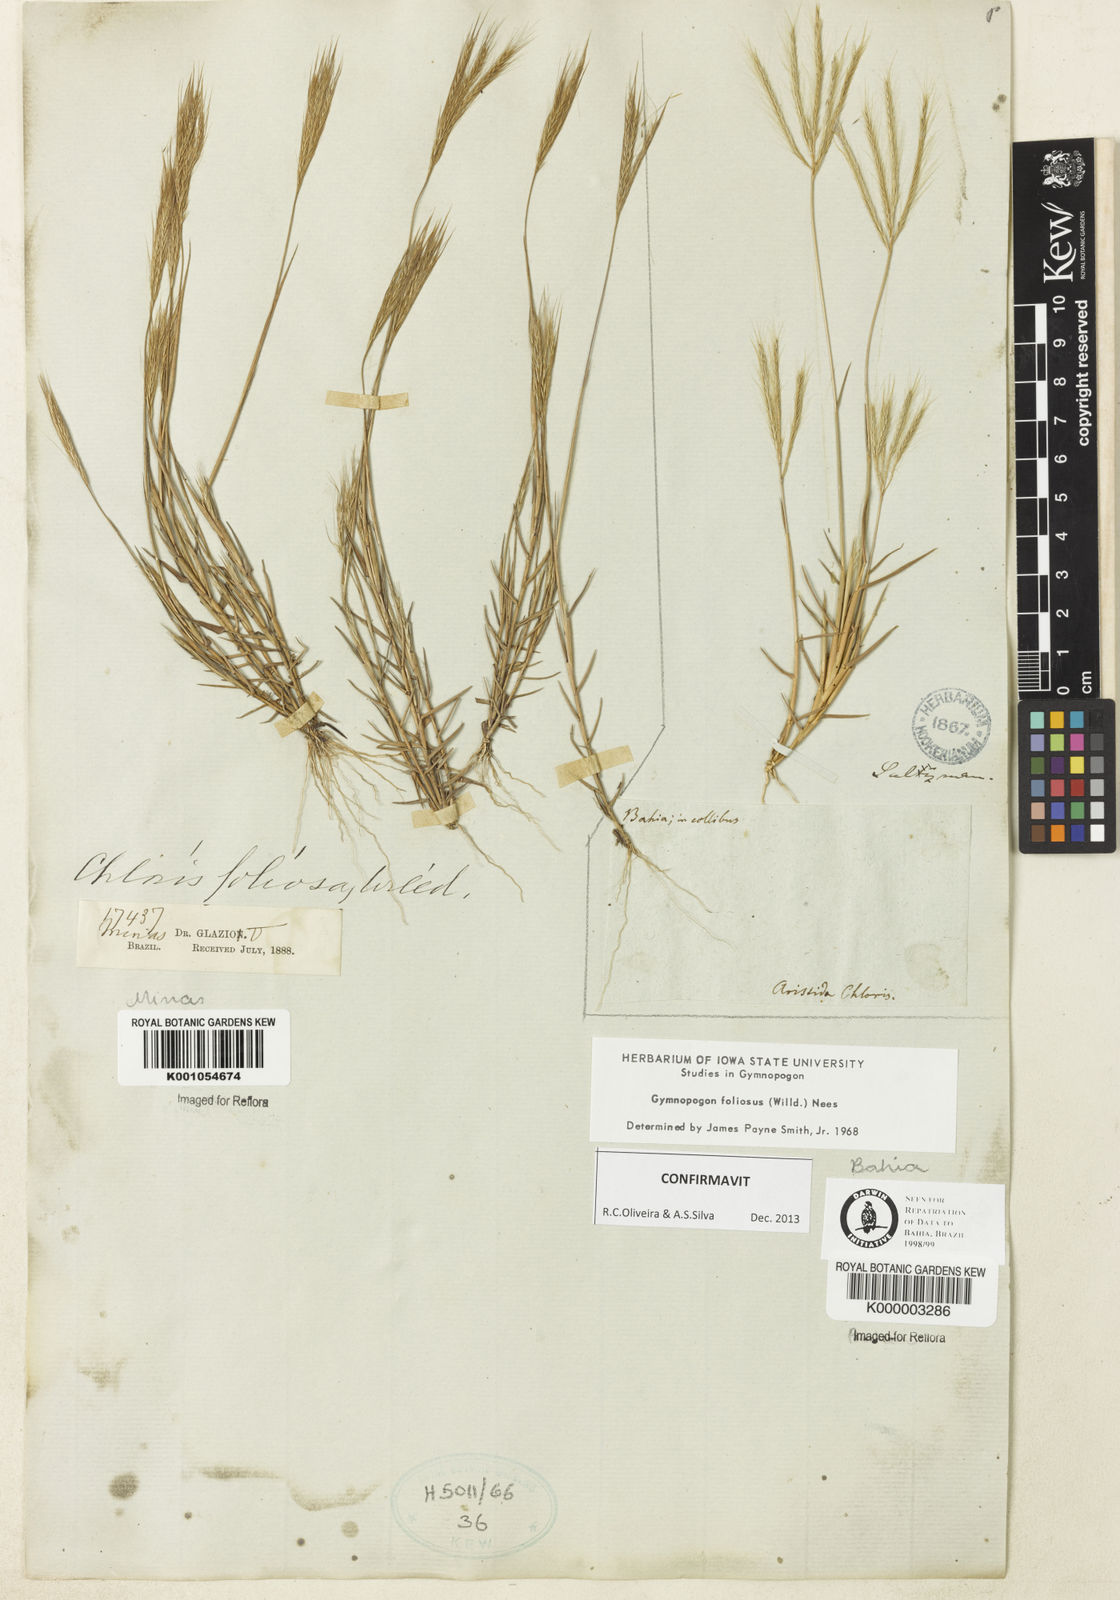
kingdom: Plantae
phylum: Tracheophyta
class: Liliopsida
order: Poales
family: Poaceae
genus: Gymnopogon
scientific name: Gymnopogon foliosus
